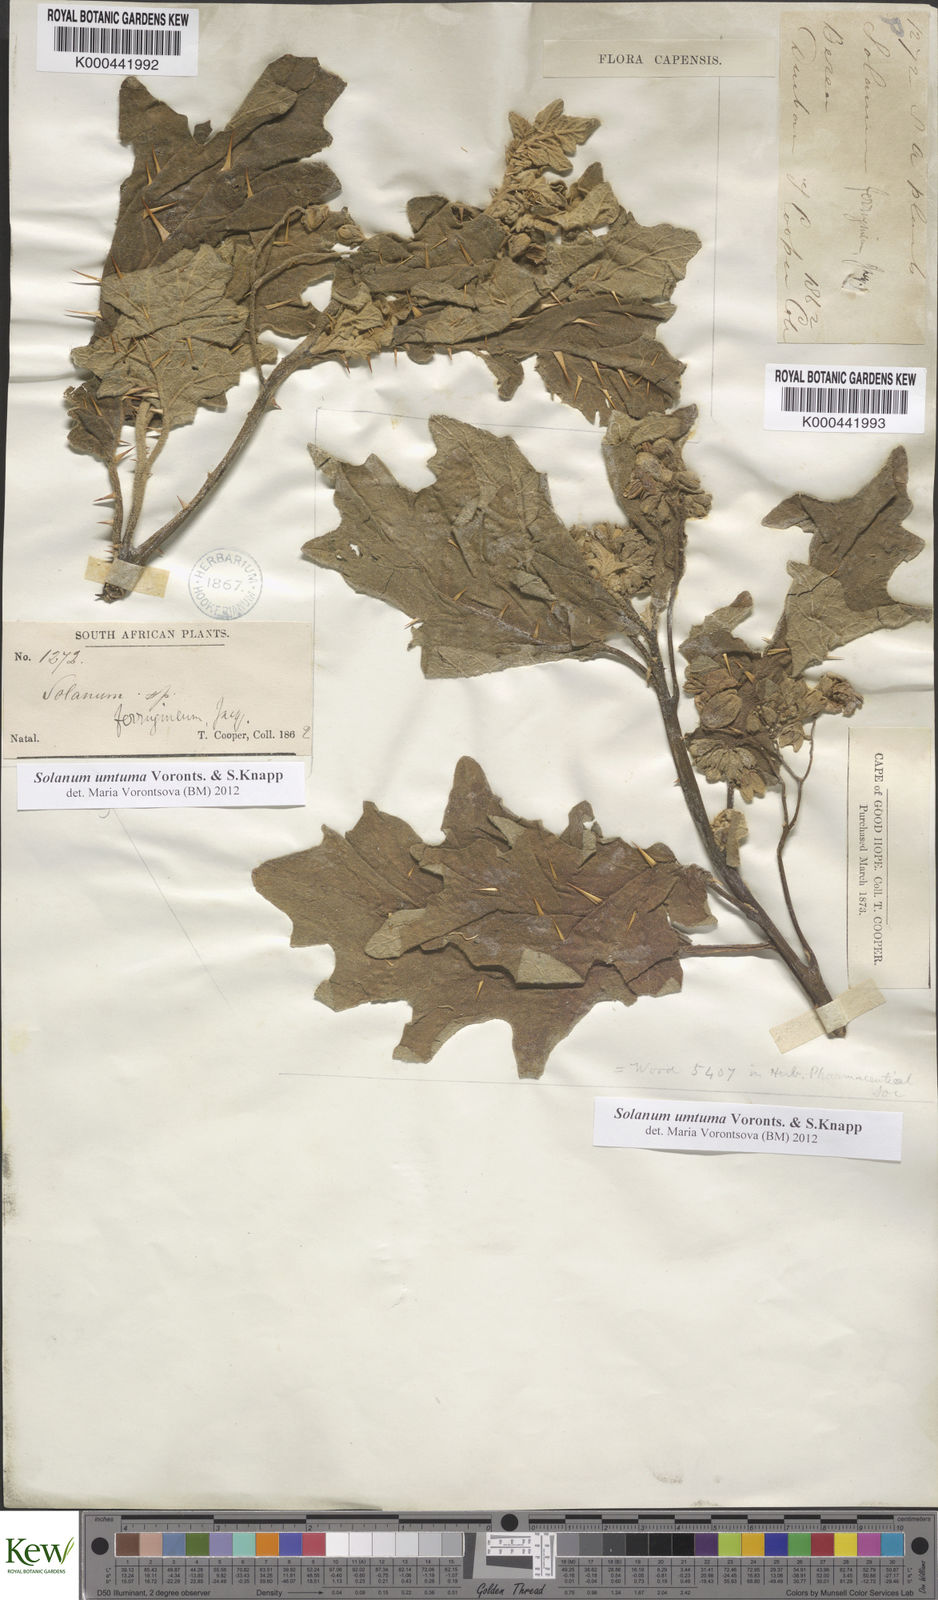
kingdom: Plantae
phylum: Tracheophyta
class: Magnoliopsida
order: Solanales
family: Solanaceae
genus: Solanum
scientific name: Solanum umtuma
